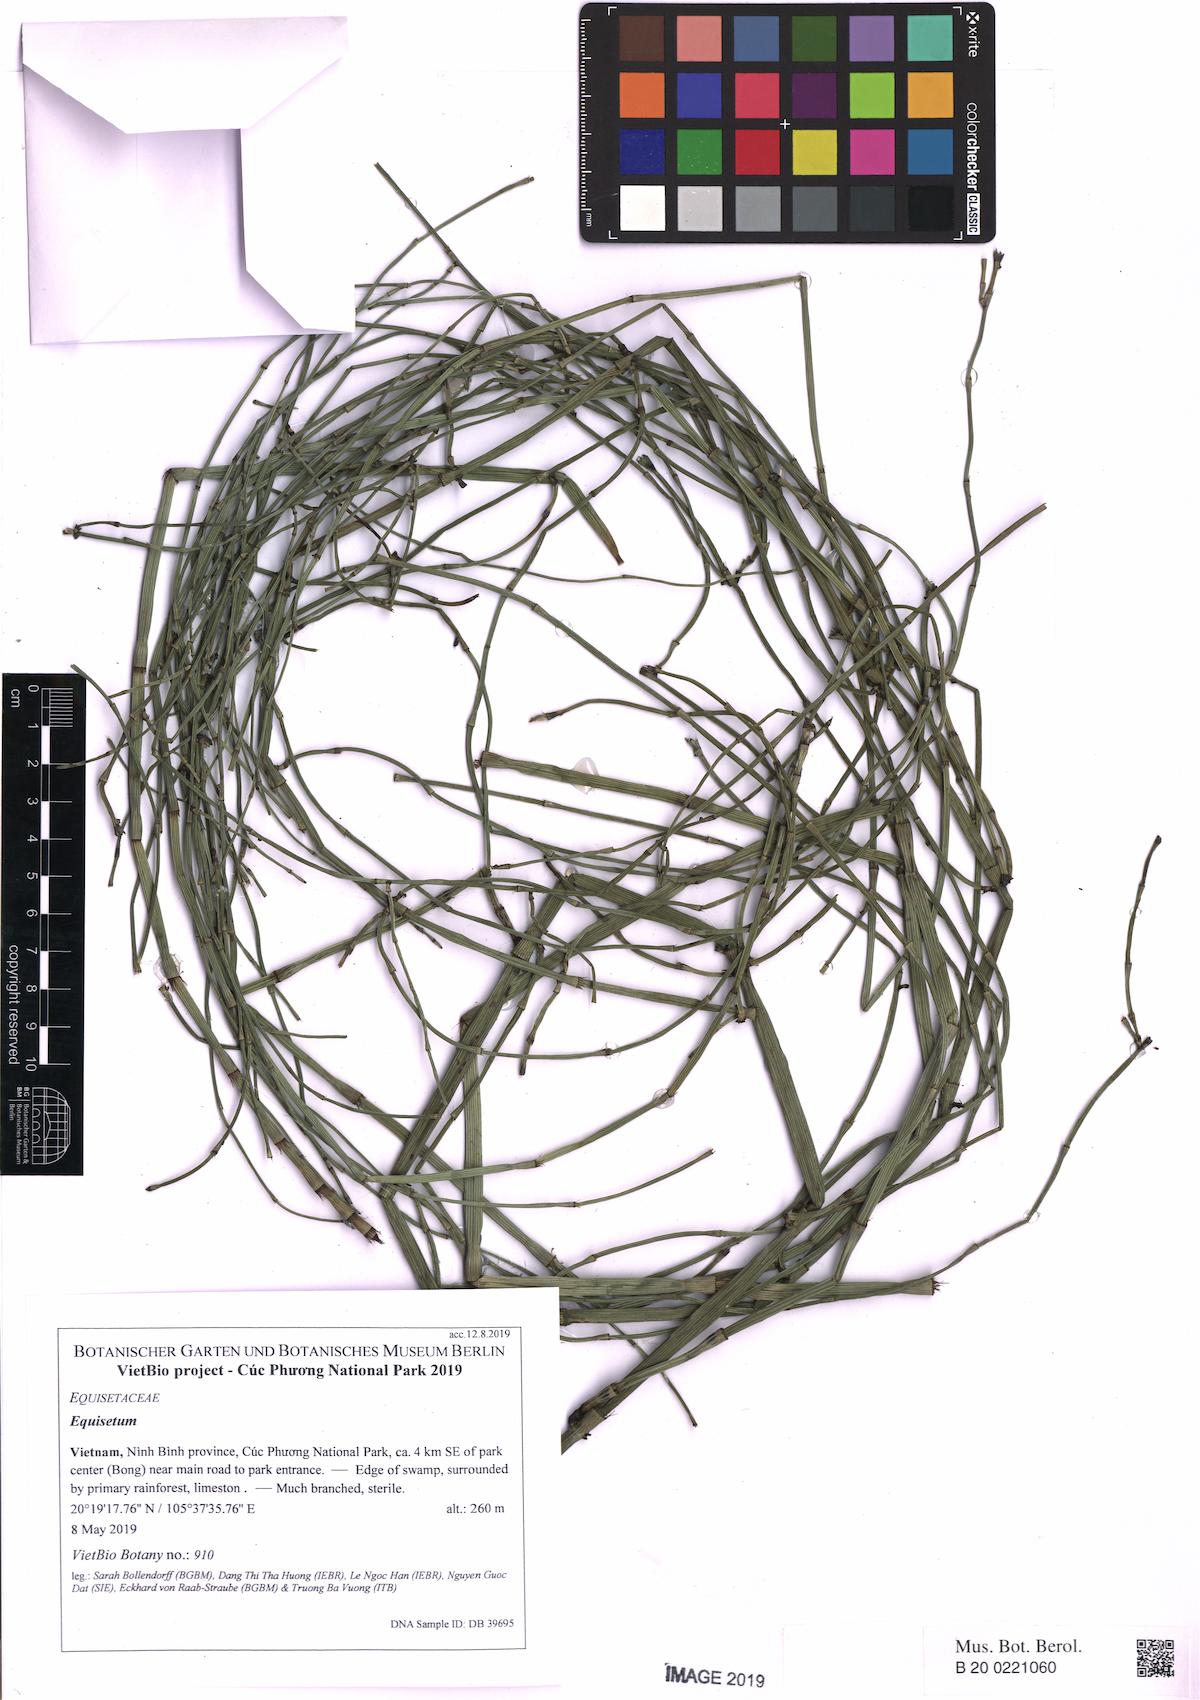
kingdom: Plantae
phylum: Tracheophyta
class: Polypodiopsida
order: Equisetales
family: Equisetaceae
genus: Equisetum
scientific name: Equisetum ramosissimum
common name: Branched horsetail
